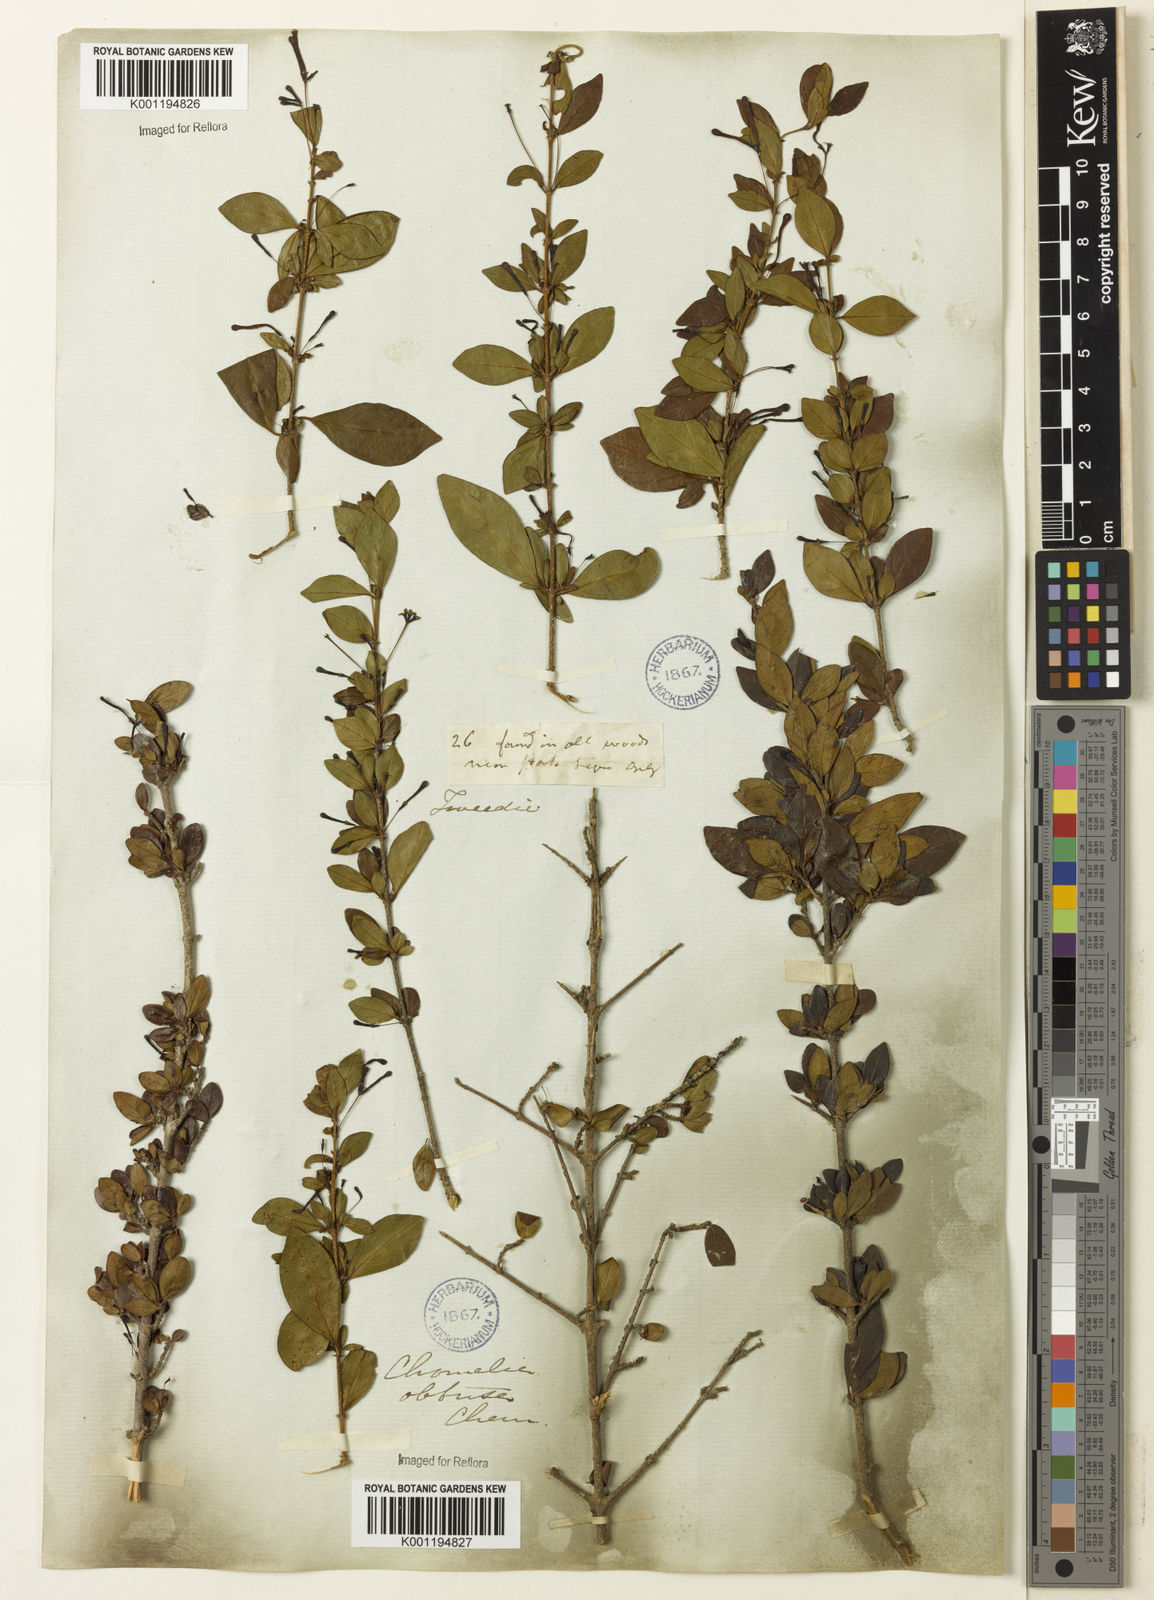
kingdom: Plantae
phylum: Tracheophyta
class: Magnoliopsida
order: Gentianales
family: Rubiaceae
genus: Chomelia
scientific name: Chomelia obtusa
